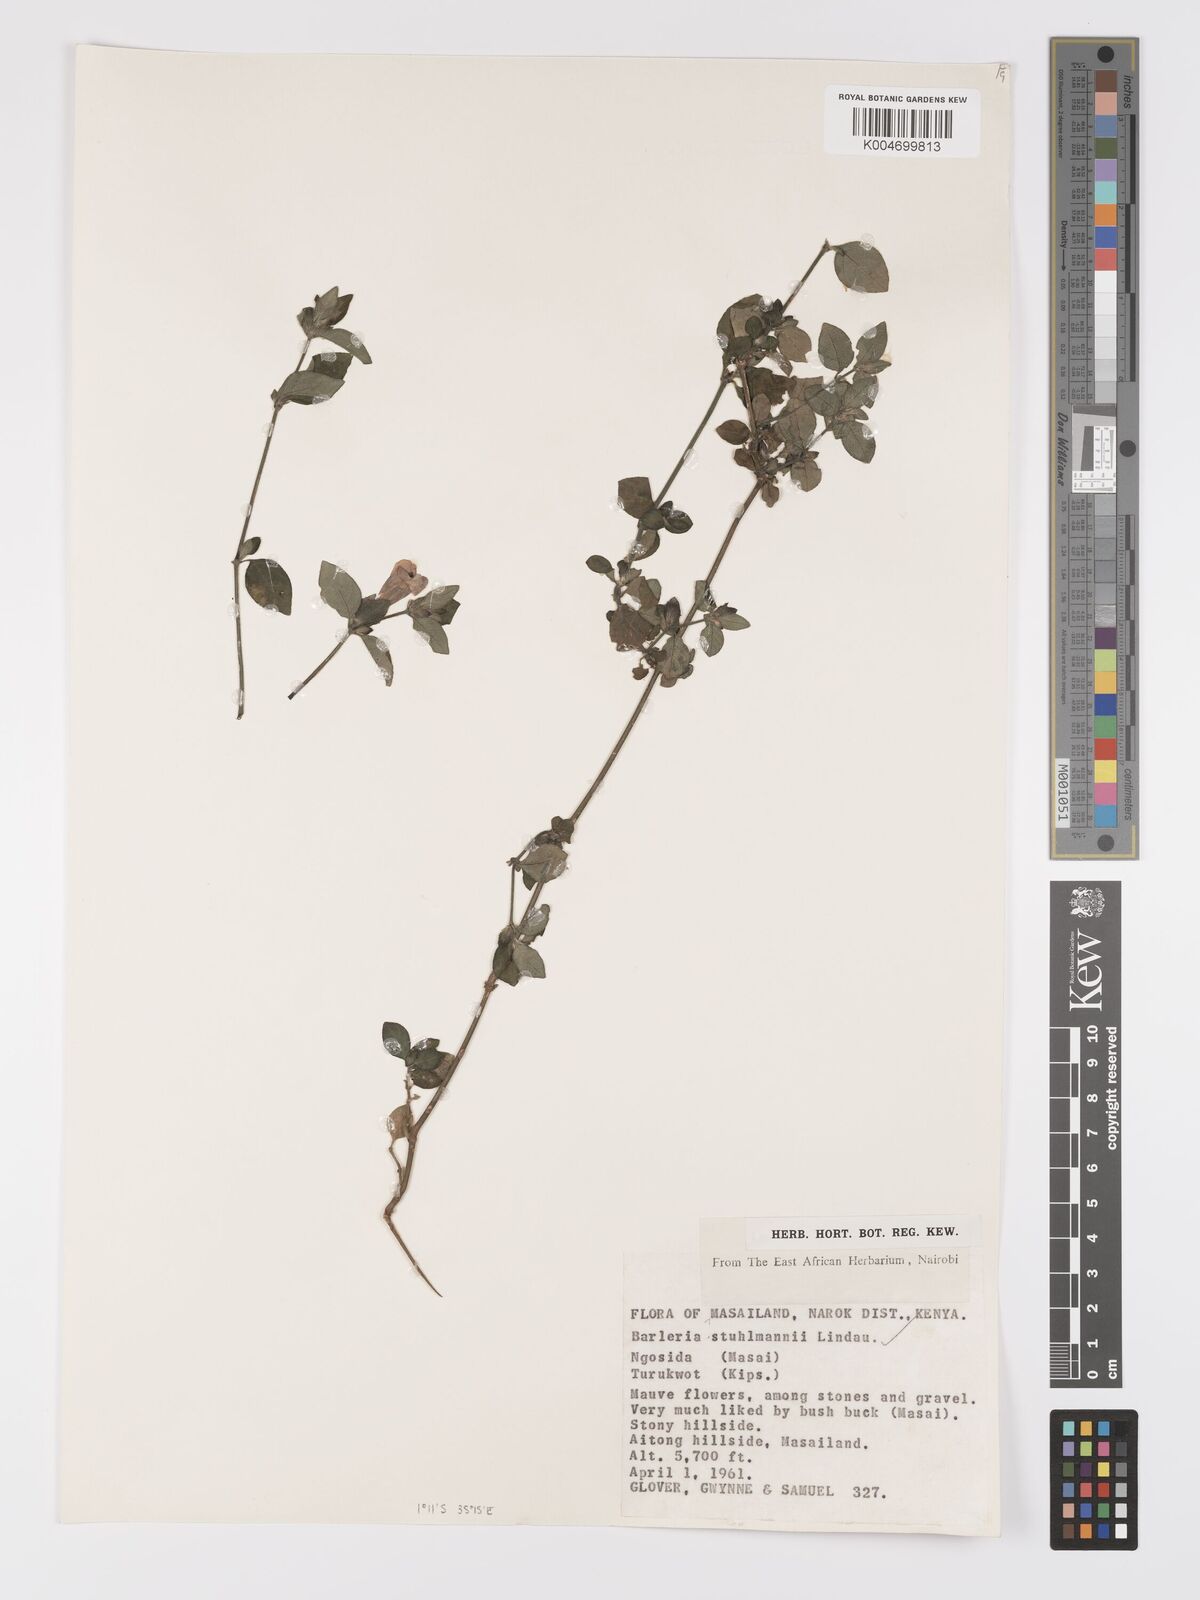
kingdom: Plantae
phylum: Tracheophyta
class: Magnoliopsida
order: Lamiales
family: Acanthaceae
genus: Barleria
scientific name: Barleria ventricosa
